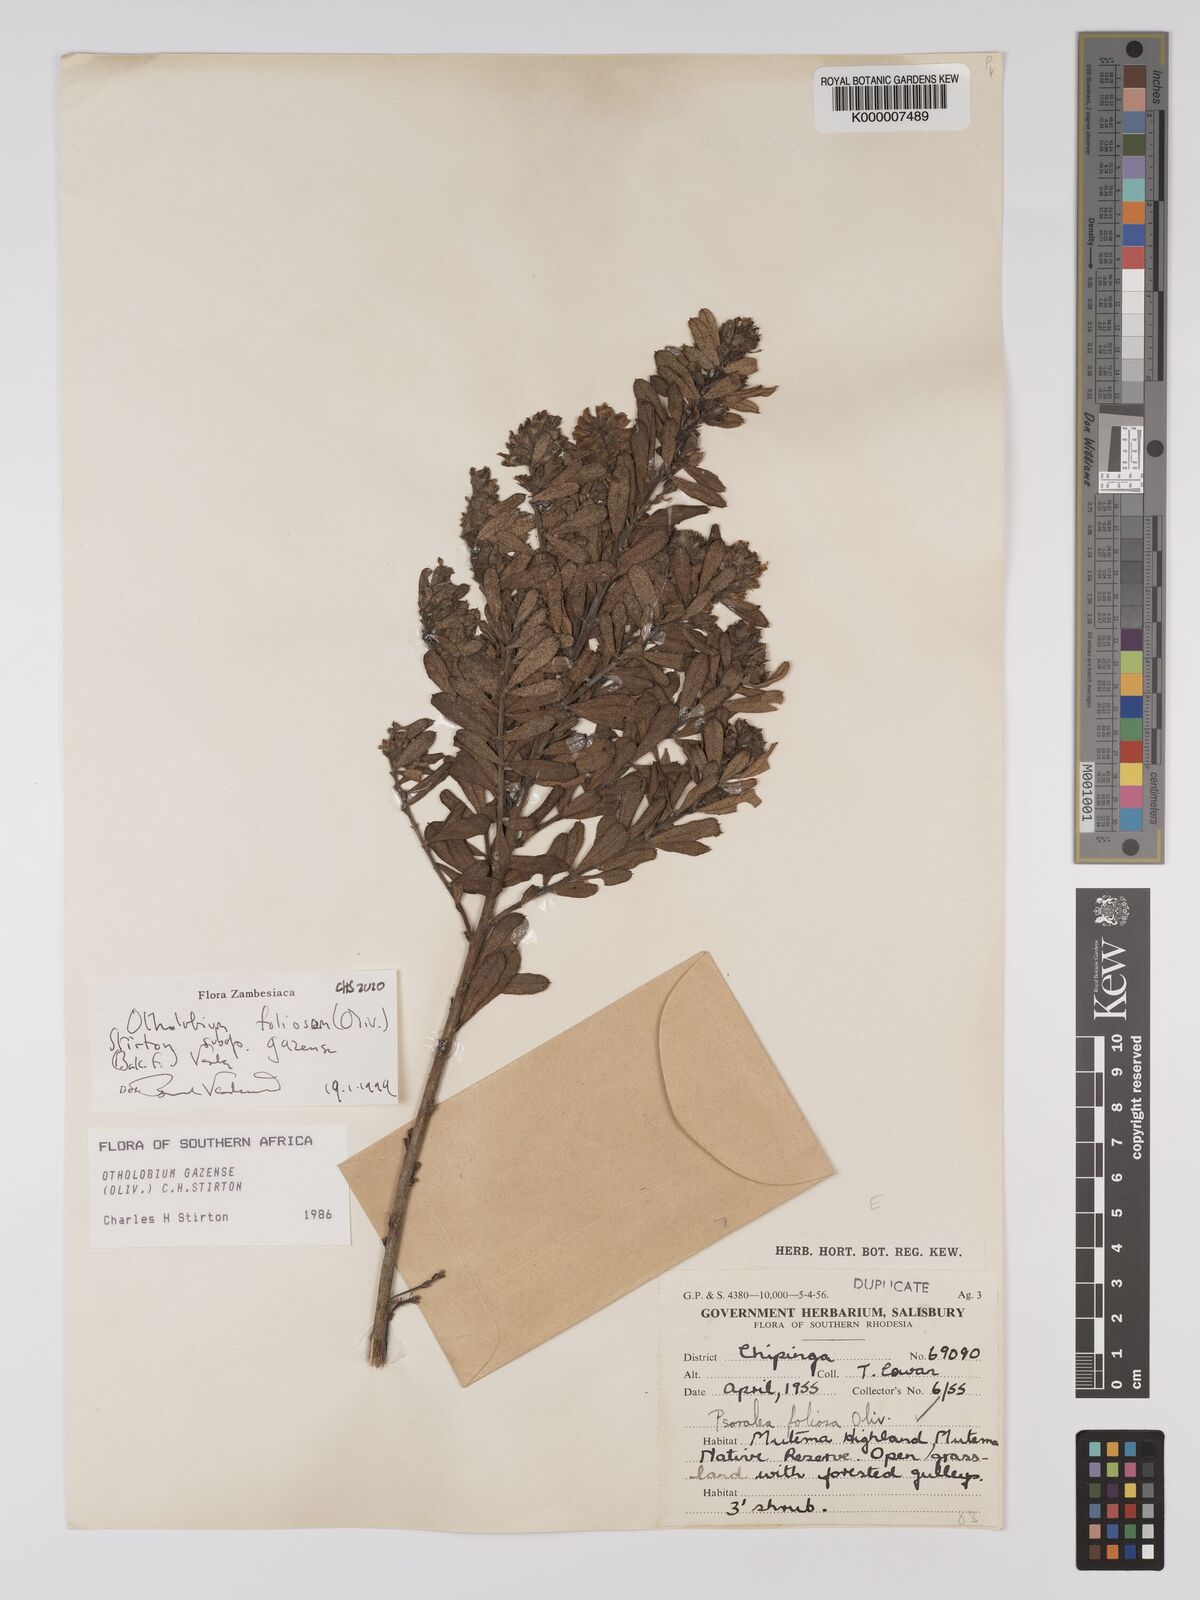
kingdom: Plantae
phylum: Tracheophyta
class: Magnoliopsida
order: Fabales
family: Fabaceae
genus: Psoralea
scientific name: Psoralea foliosa
